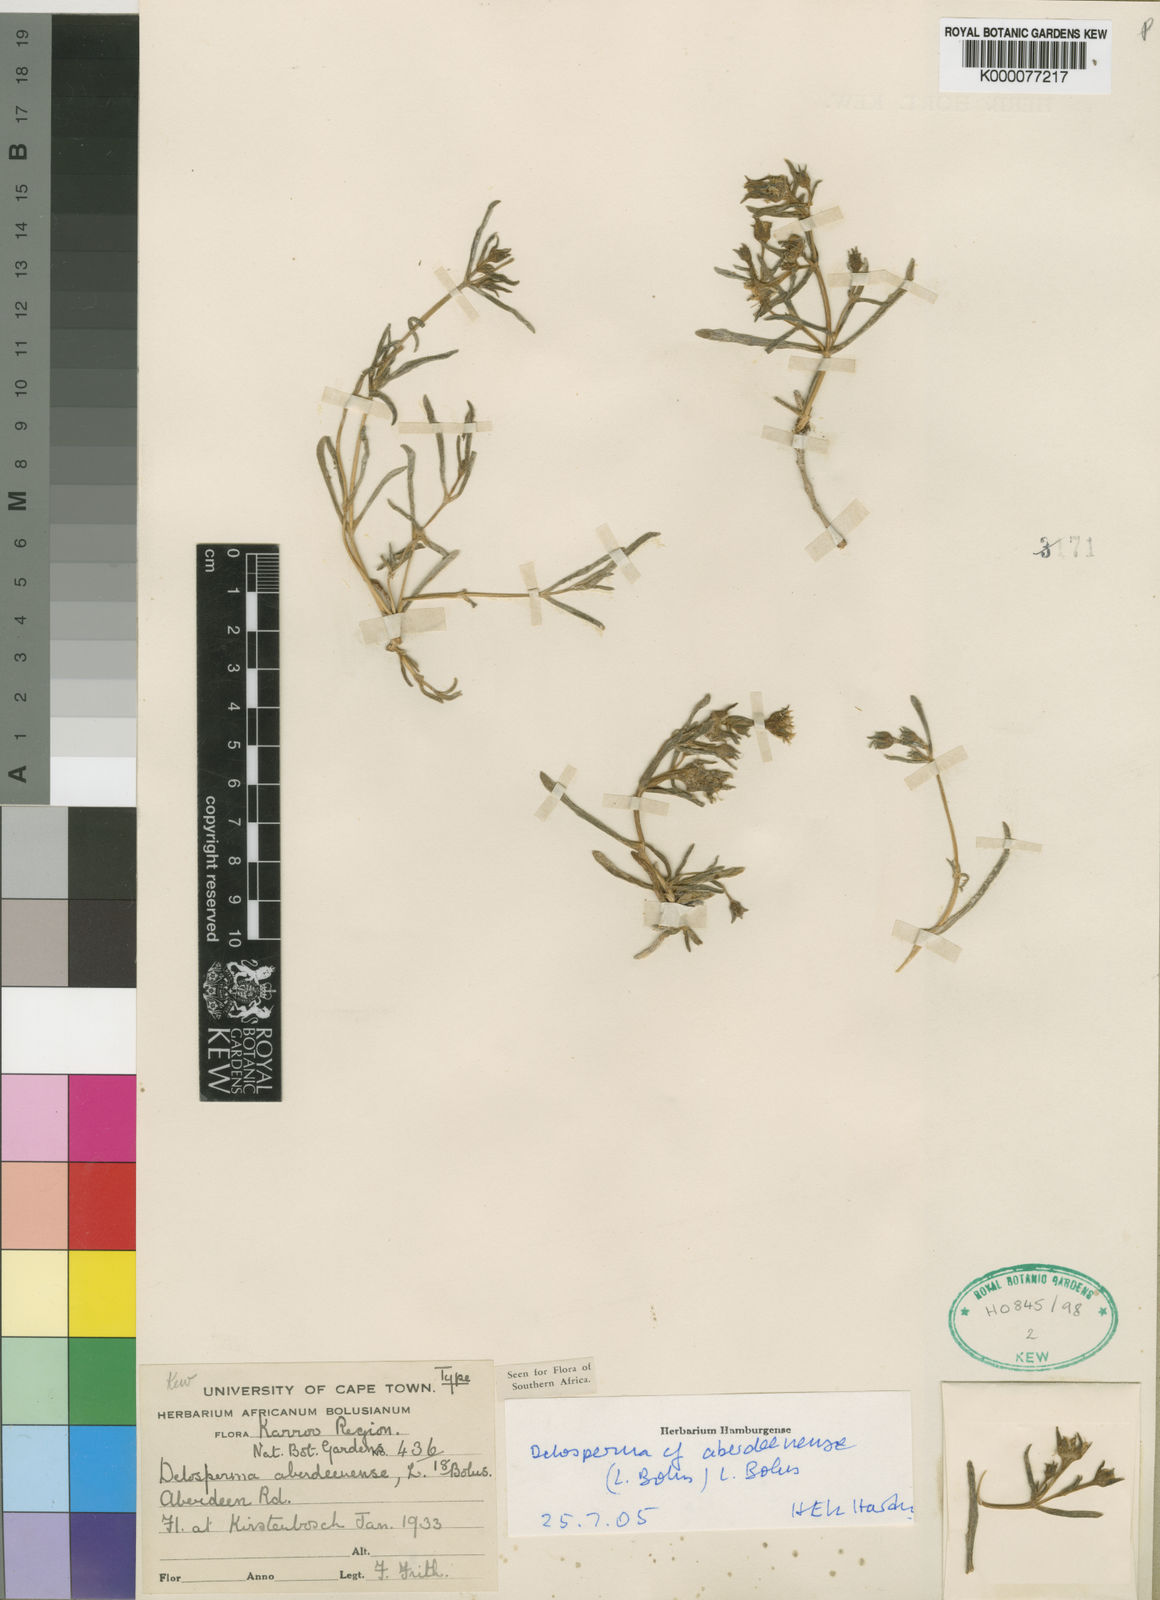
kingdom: Plantae
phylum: Tracheophyta
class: Magnoliopsida
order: Caryophyllales
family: Aizoaceae
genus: Delosperma
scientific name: Delosperma aberdeenense
